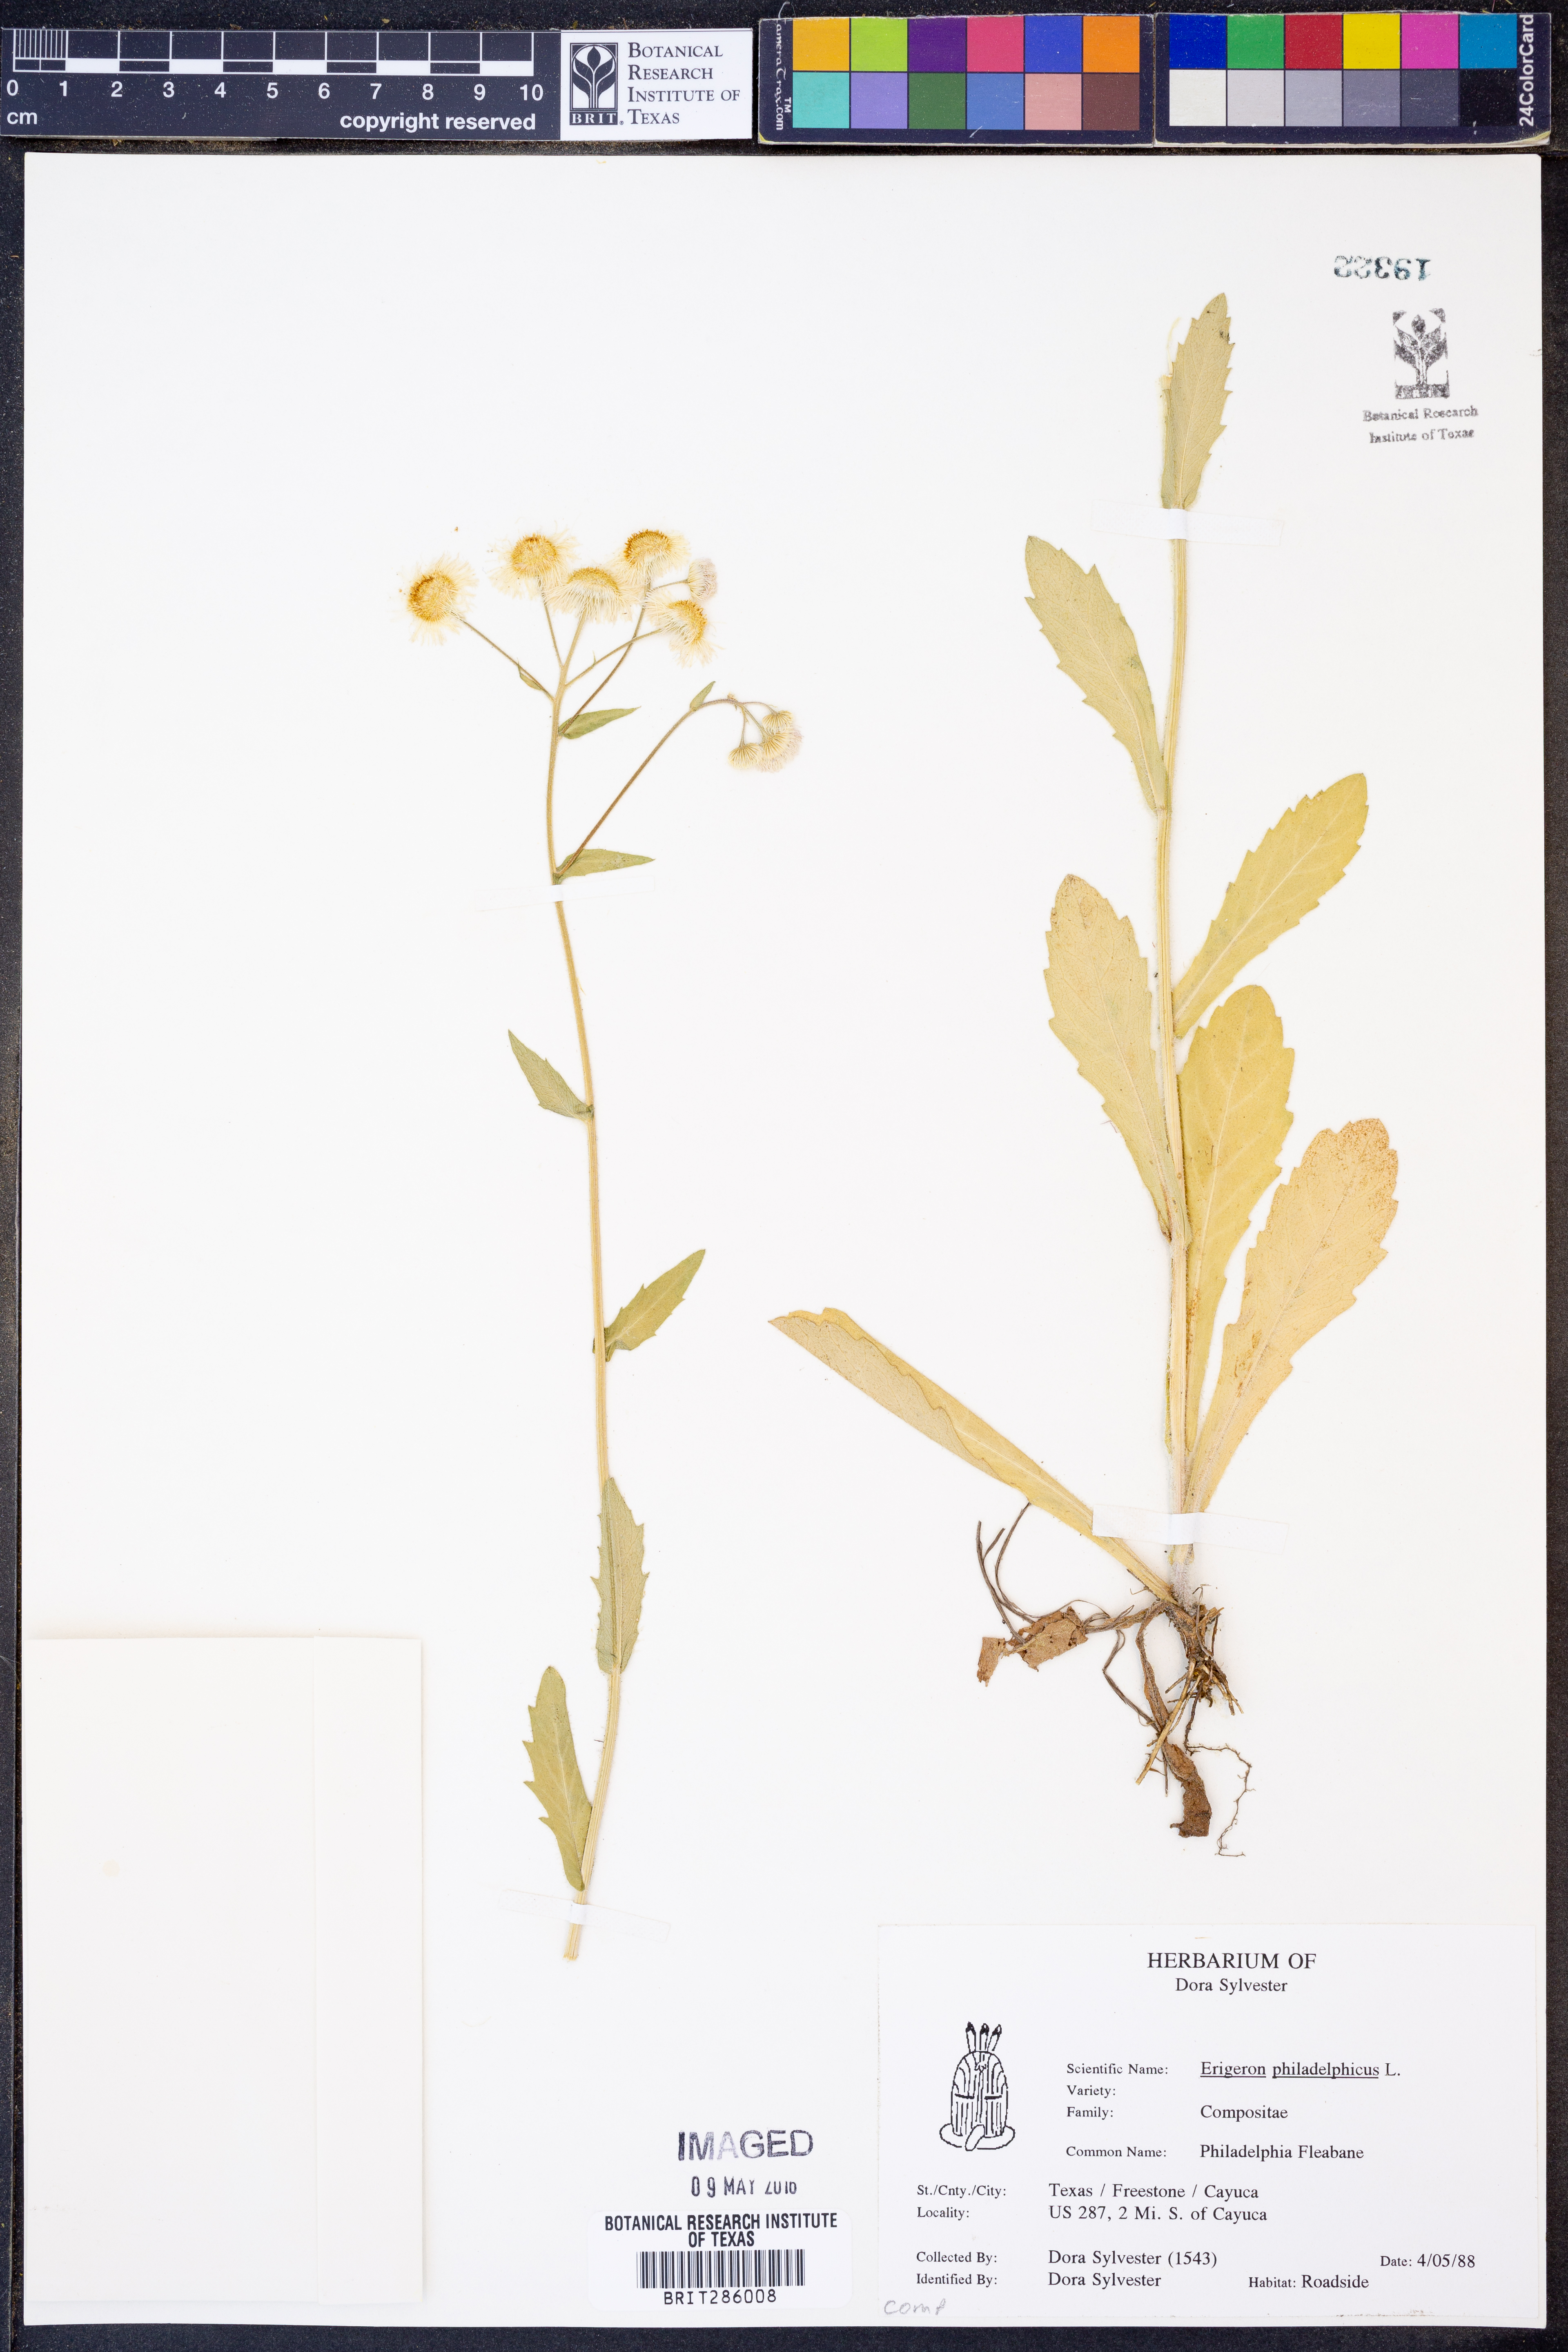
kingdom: Plantae
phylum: Tracheophyta
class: Magnoliopsida
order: Asterales
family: Asteraceae
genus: Erigeron
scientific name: Erigeron philadelphicus
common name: Robin's-plantain
